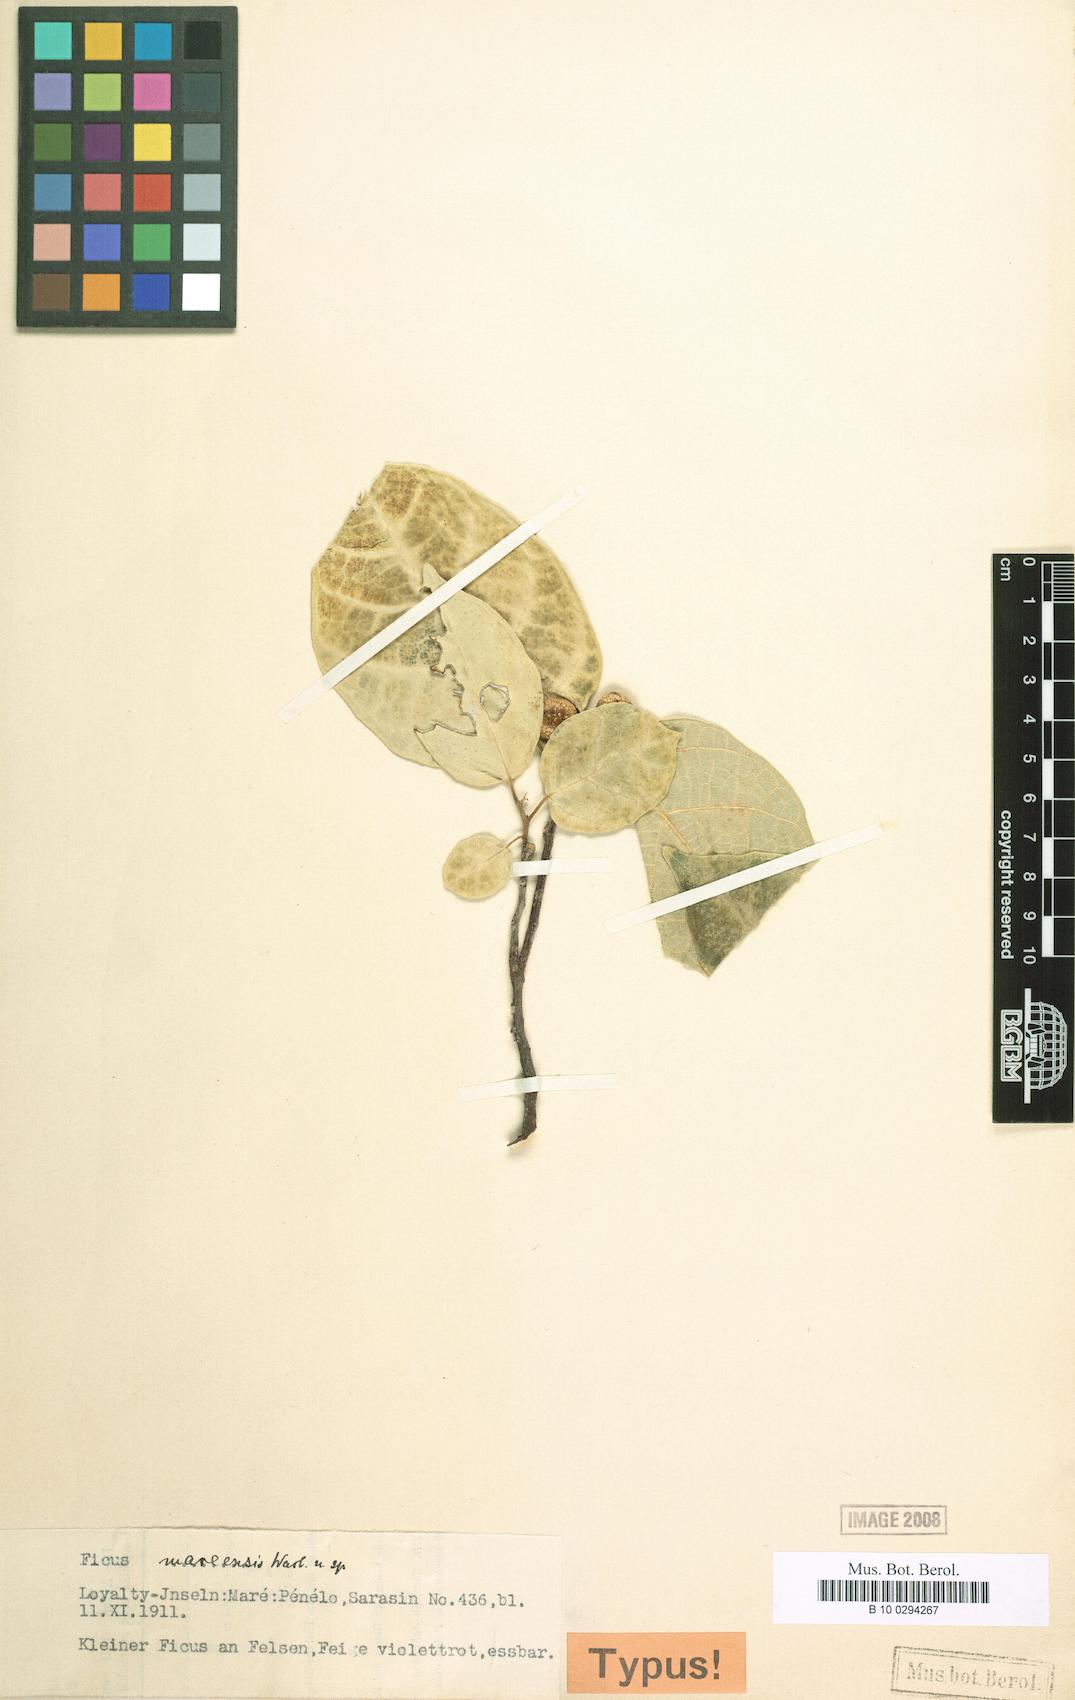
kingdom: Plantae
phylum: Tracheophyta
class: Magnoliopsida
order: Rosales
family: Moraceae
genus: Ficus
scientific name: Ficus scabra
